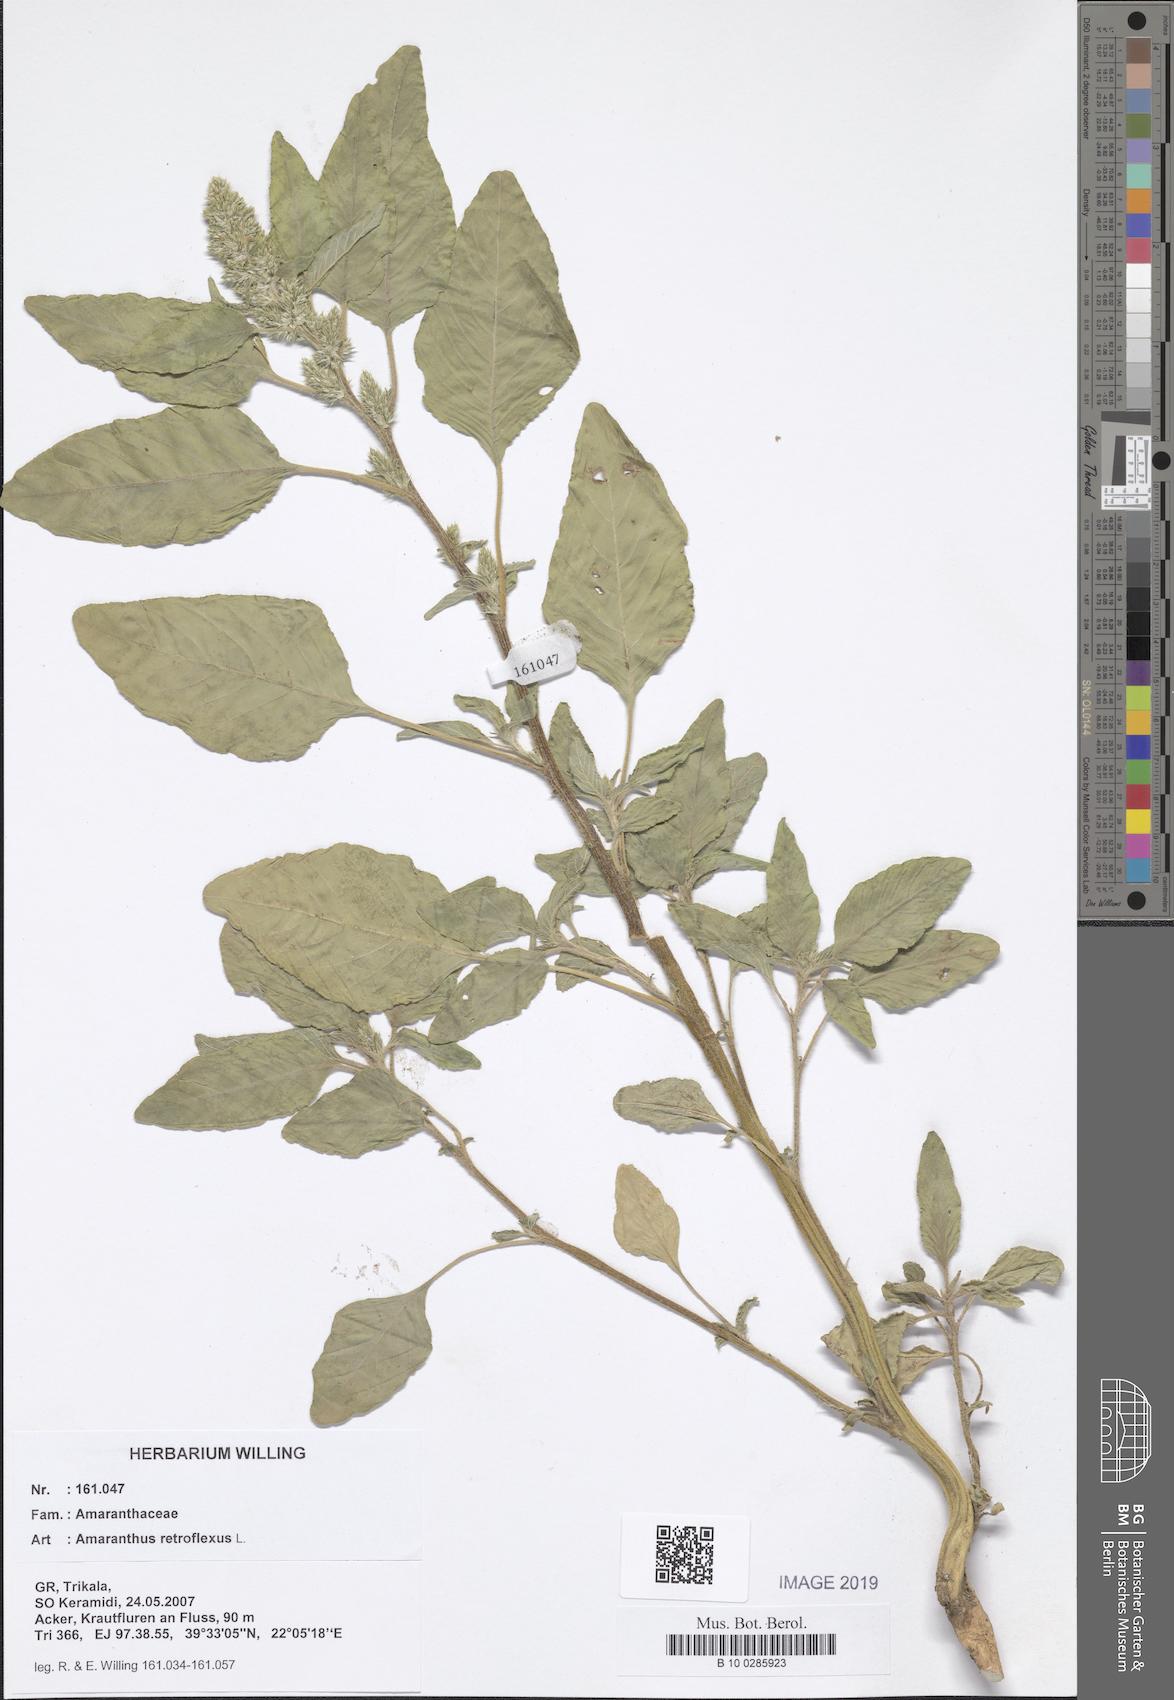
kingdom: Plantae
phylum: Tracheophyta
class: Magnoliopsida
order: Caryophyllales
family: Amaranthaceae
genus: Amaranthus
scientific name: Amaranthus retroflexus
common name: Redroot amaranth
